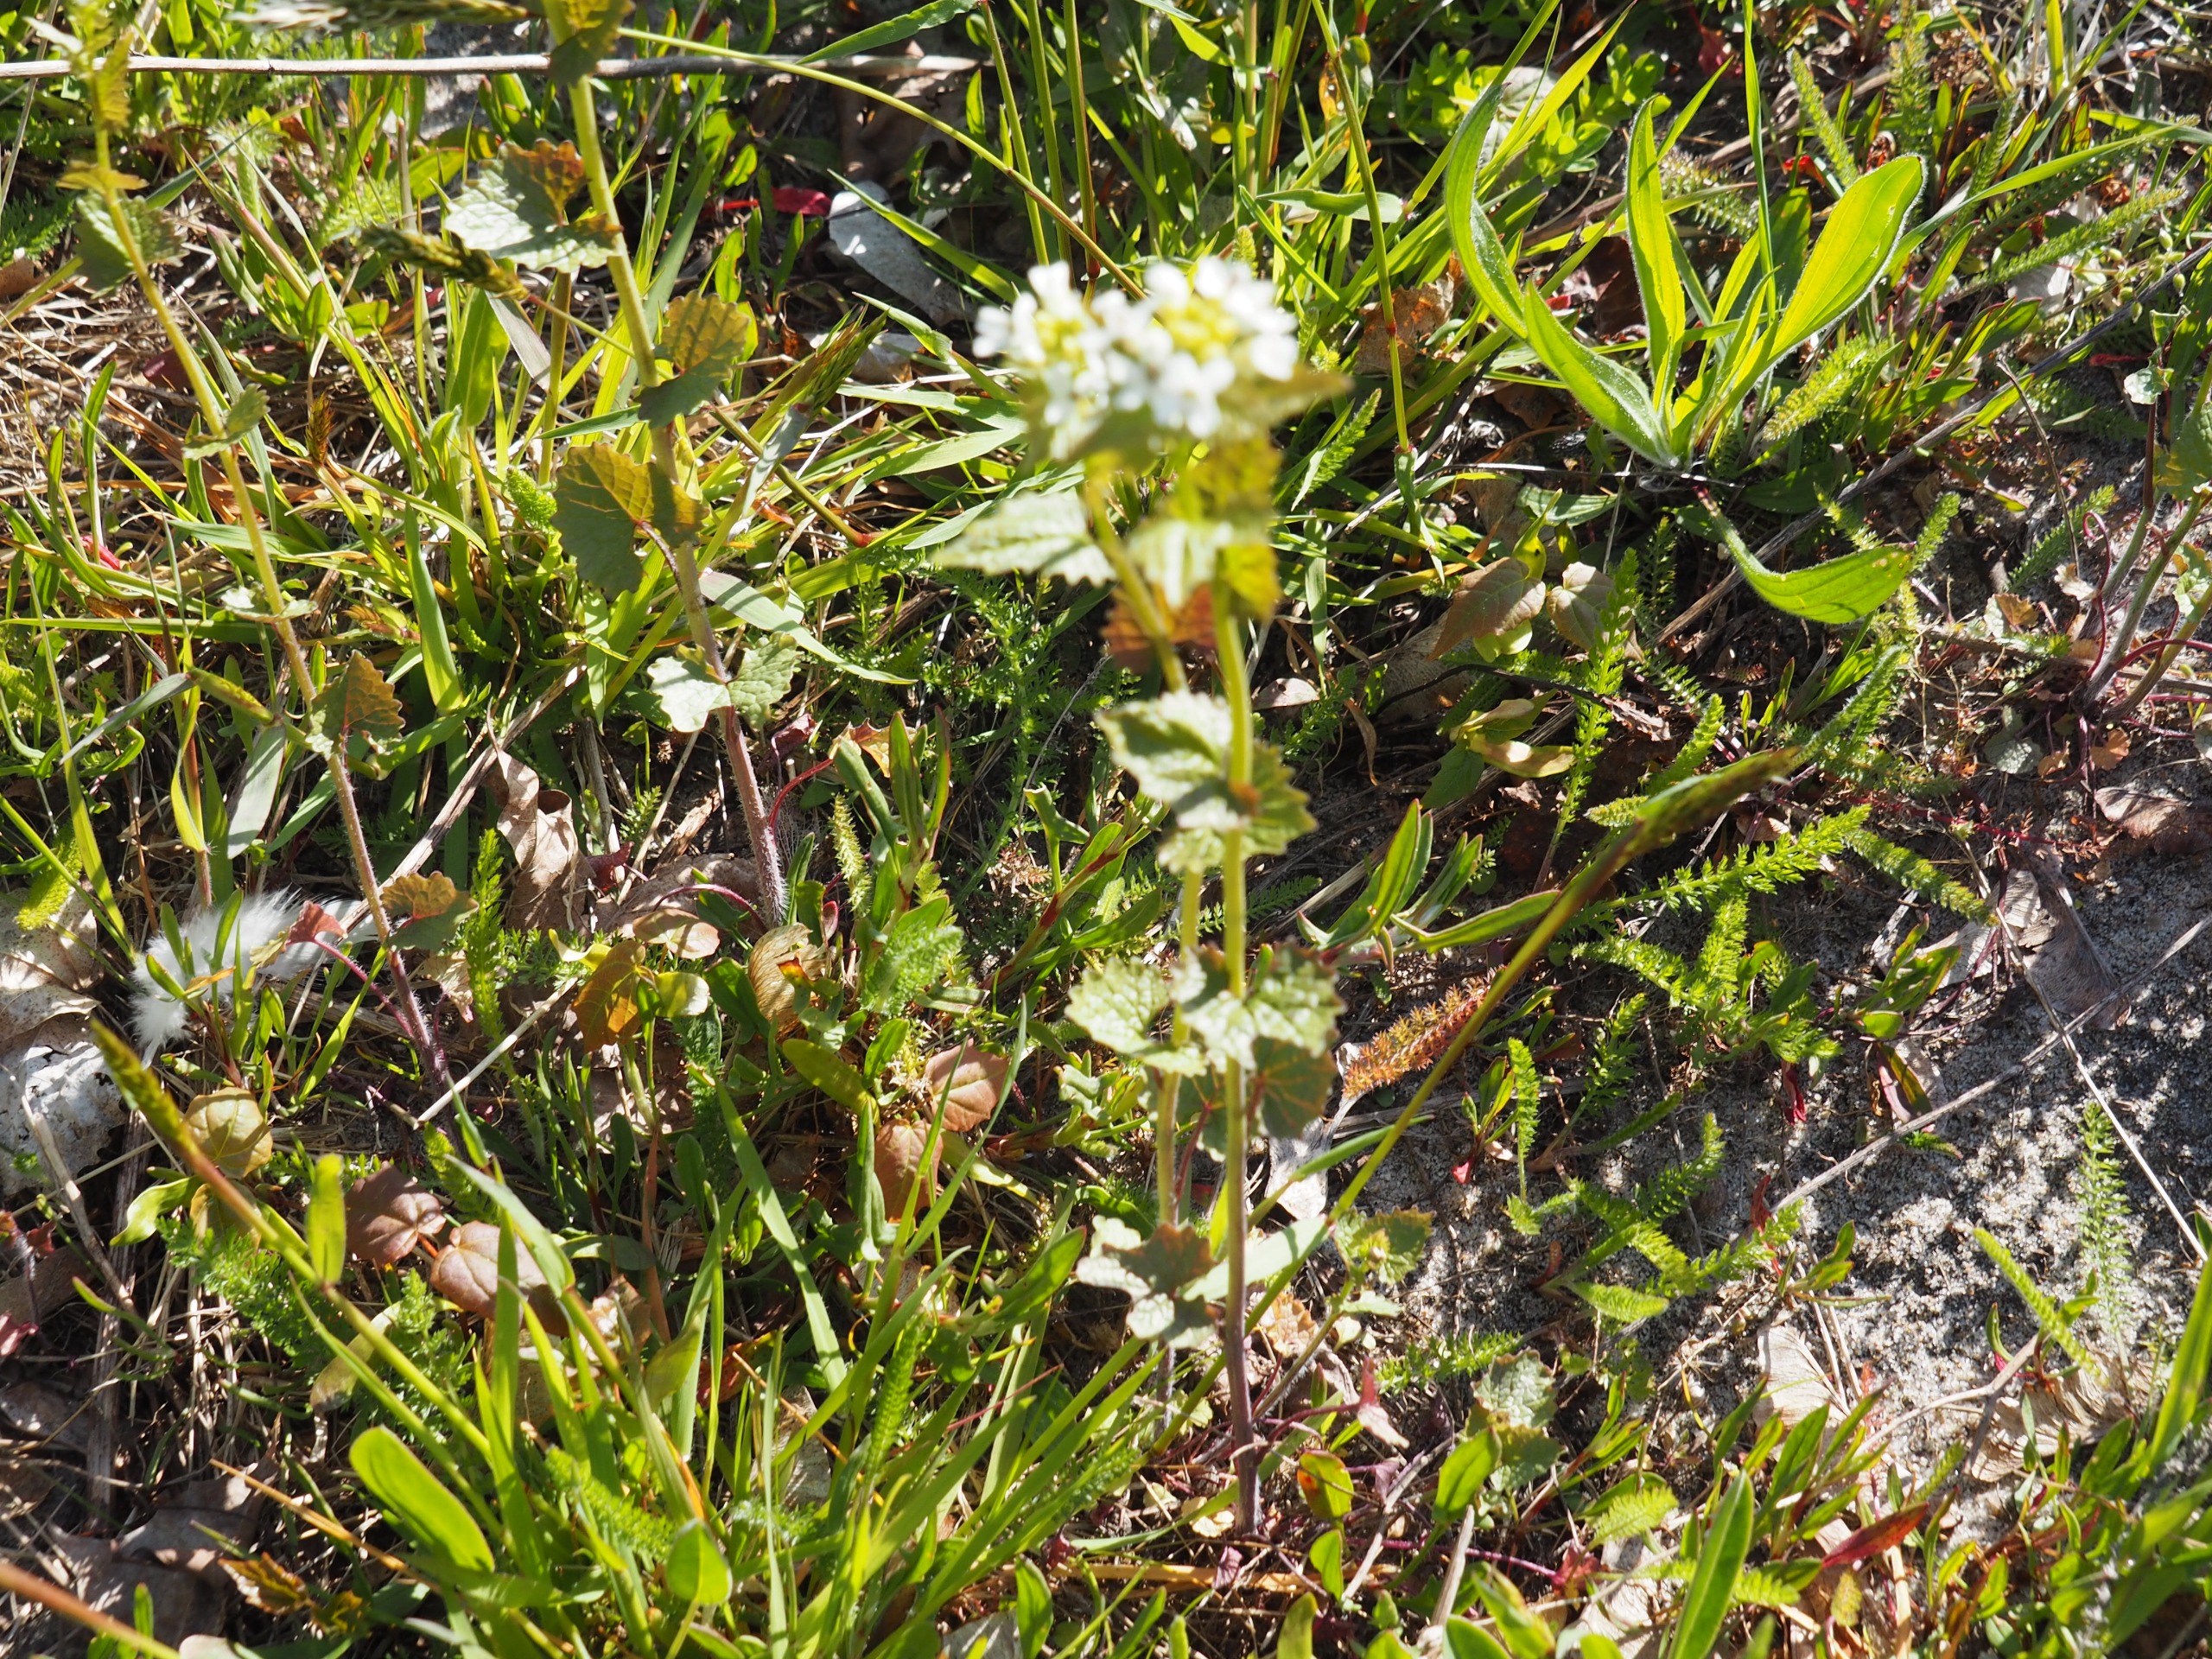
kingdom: Plantae
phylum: Tracheophyta
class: Magnoliopsida
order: Brassicales
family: Brassicaceae
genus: Alliaria
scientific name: Alliaria petiolata
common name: Løgkarse
